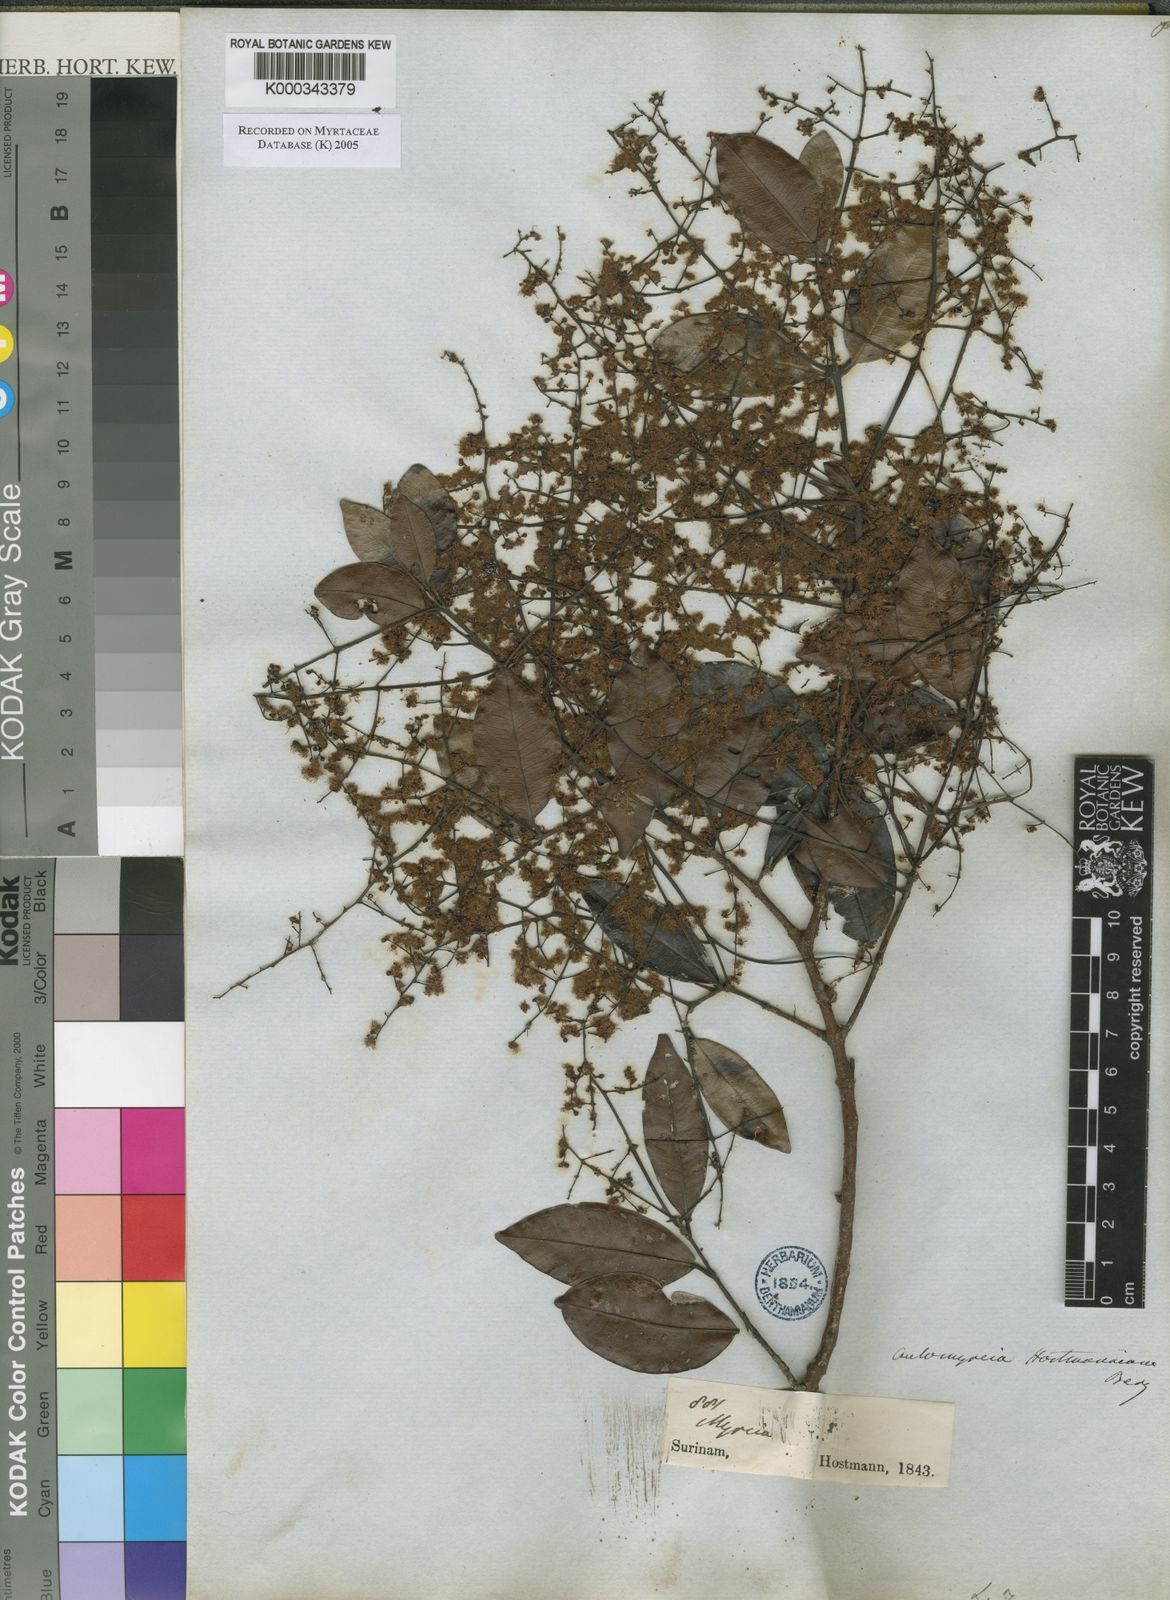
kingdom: Plantae
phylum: Tracheophyta
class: Magnoliopsida
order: Myrtales
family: Myrtaceae
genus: Myrcia
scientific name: Myrcia amazonica
